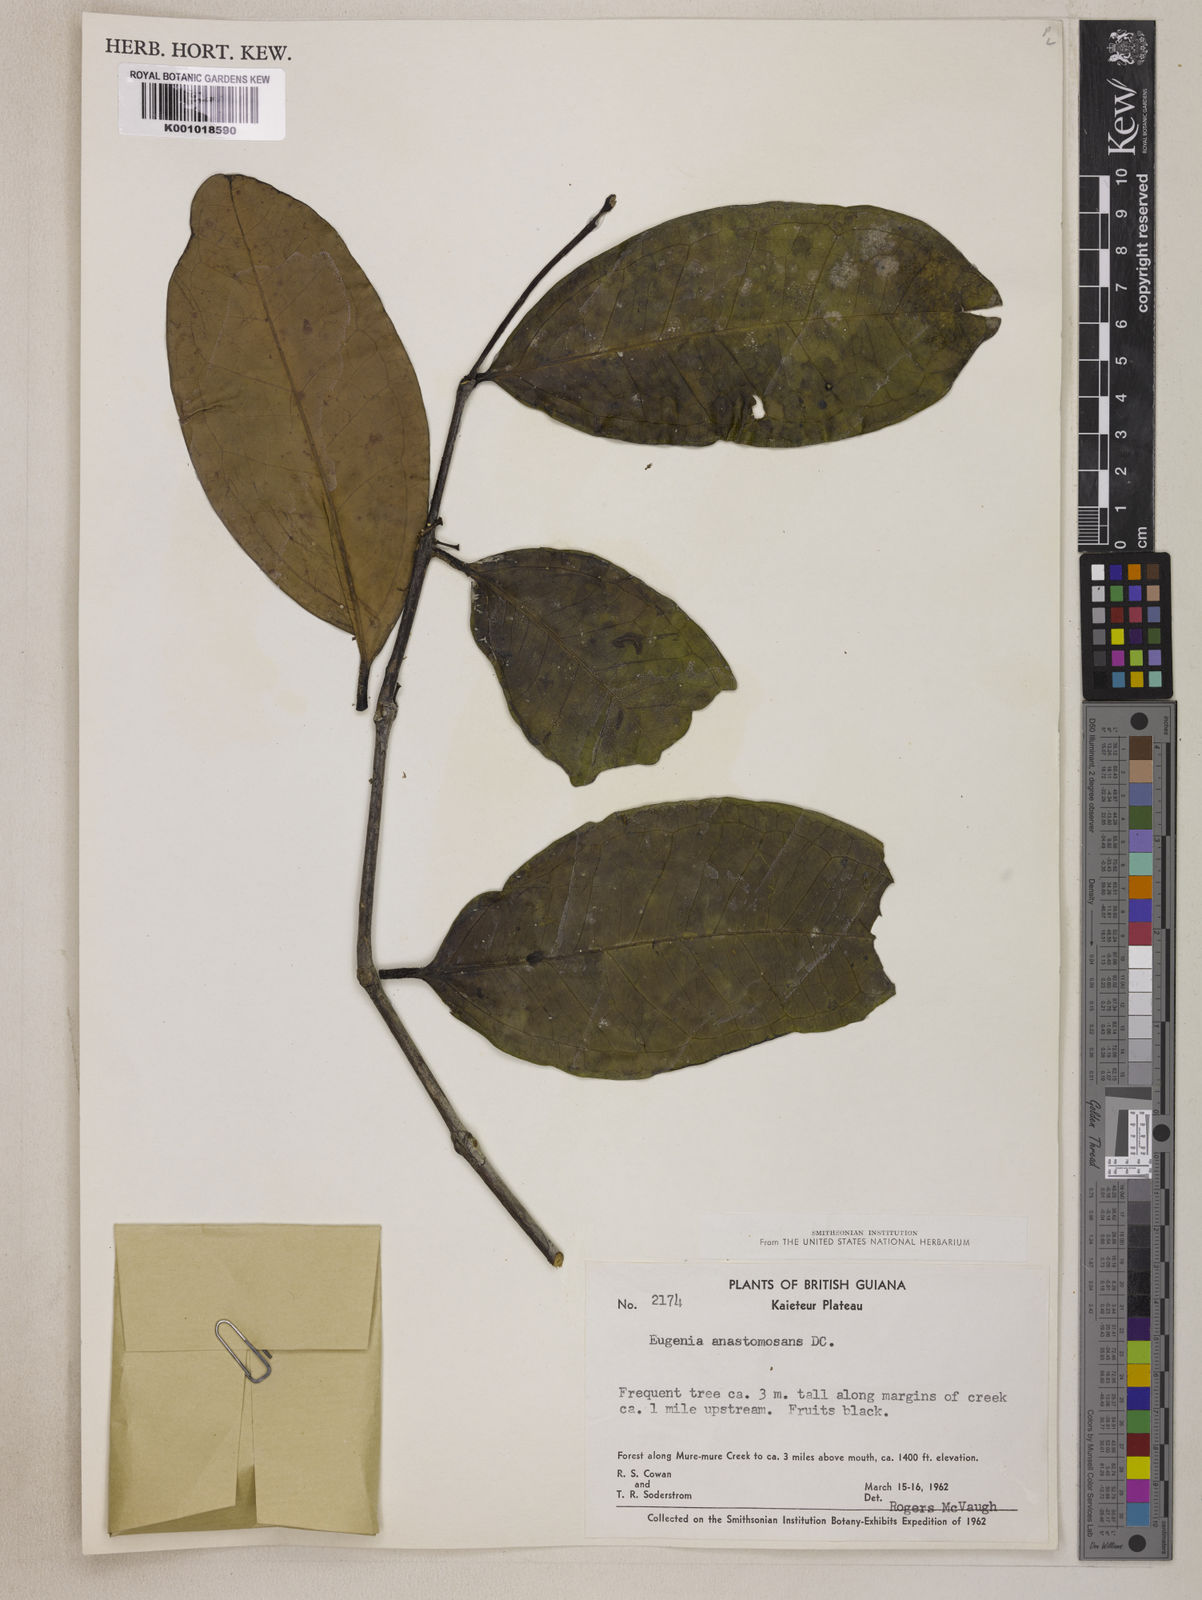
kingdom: Plantae
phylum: Tracheophyta
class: Magnoliopsida
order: Myrtales
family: Myrtaceae
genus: Eugenia
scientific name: Eugenia anastomosans
